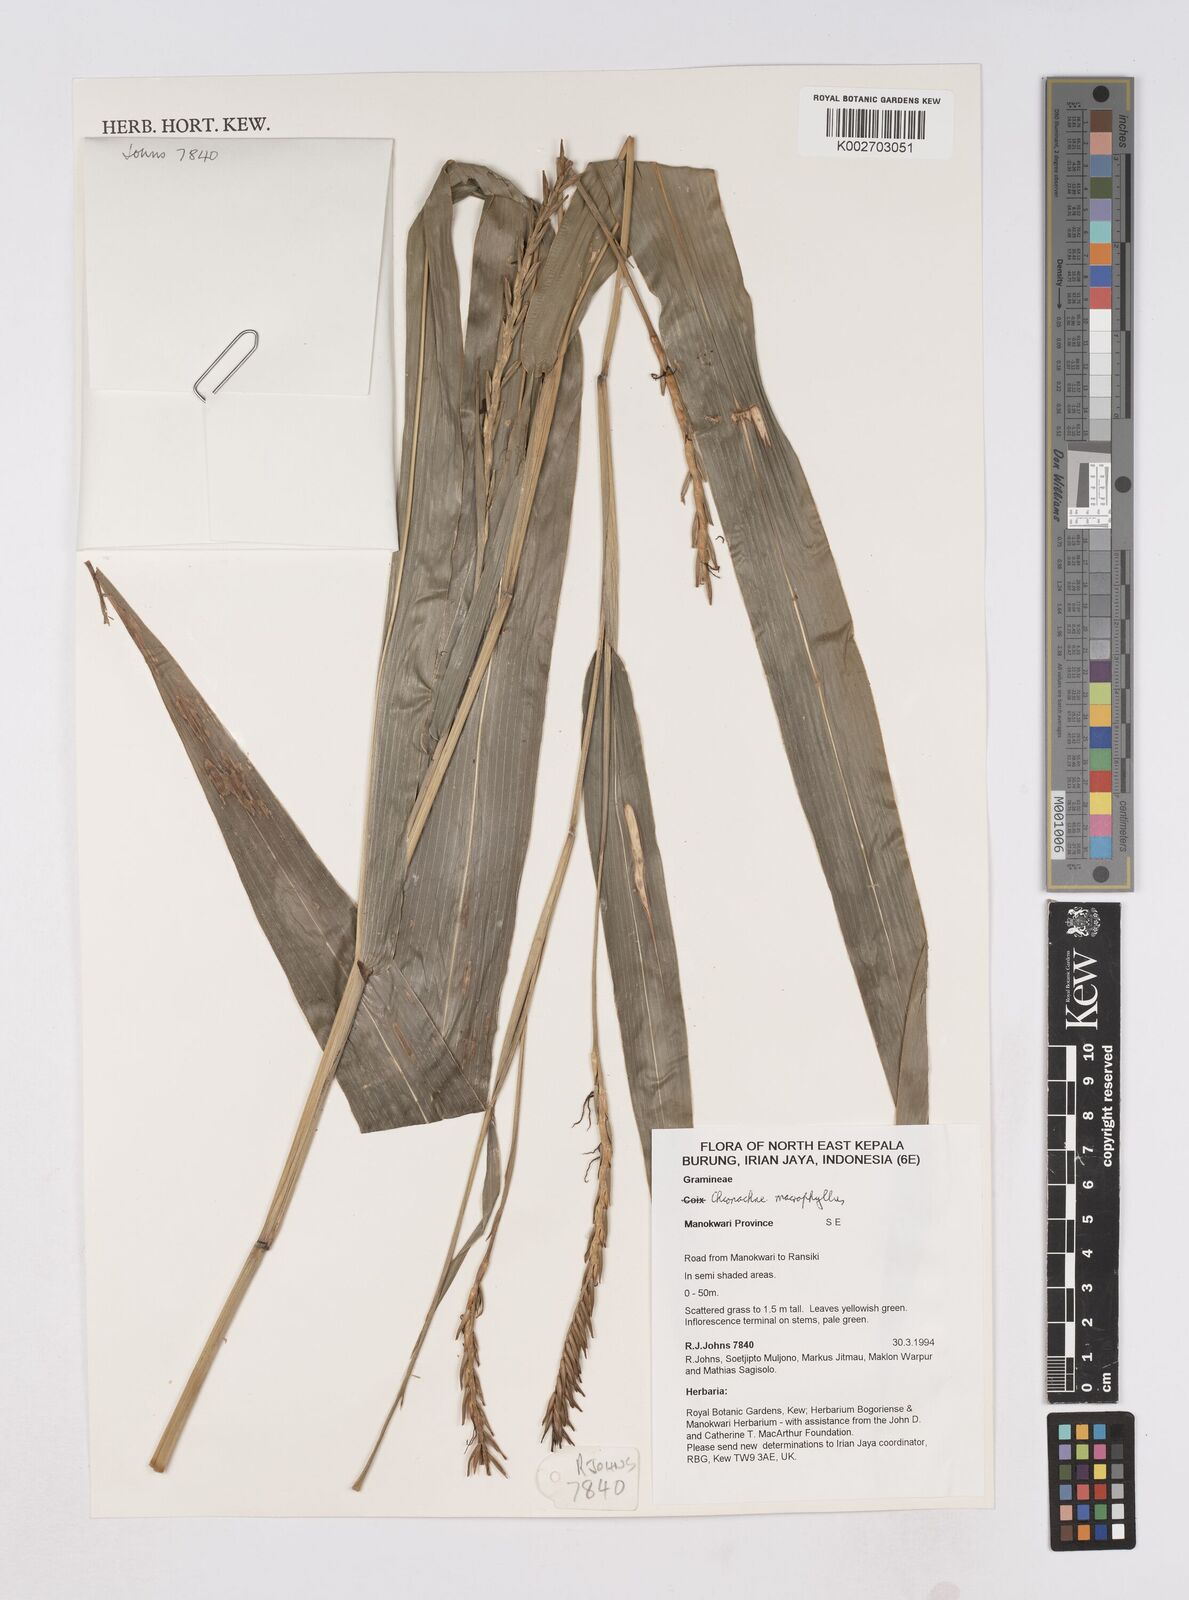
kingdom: Plantae
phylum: Tracheophyta
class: Liliopsida
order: Poales
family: Poaceae
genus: Polytoca
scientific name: Polytoca macrophylla
